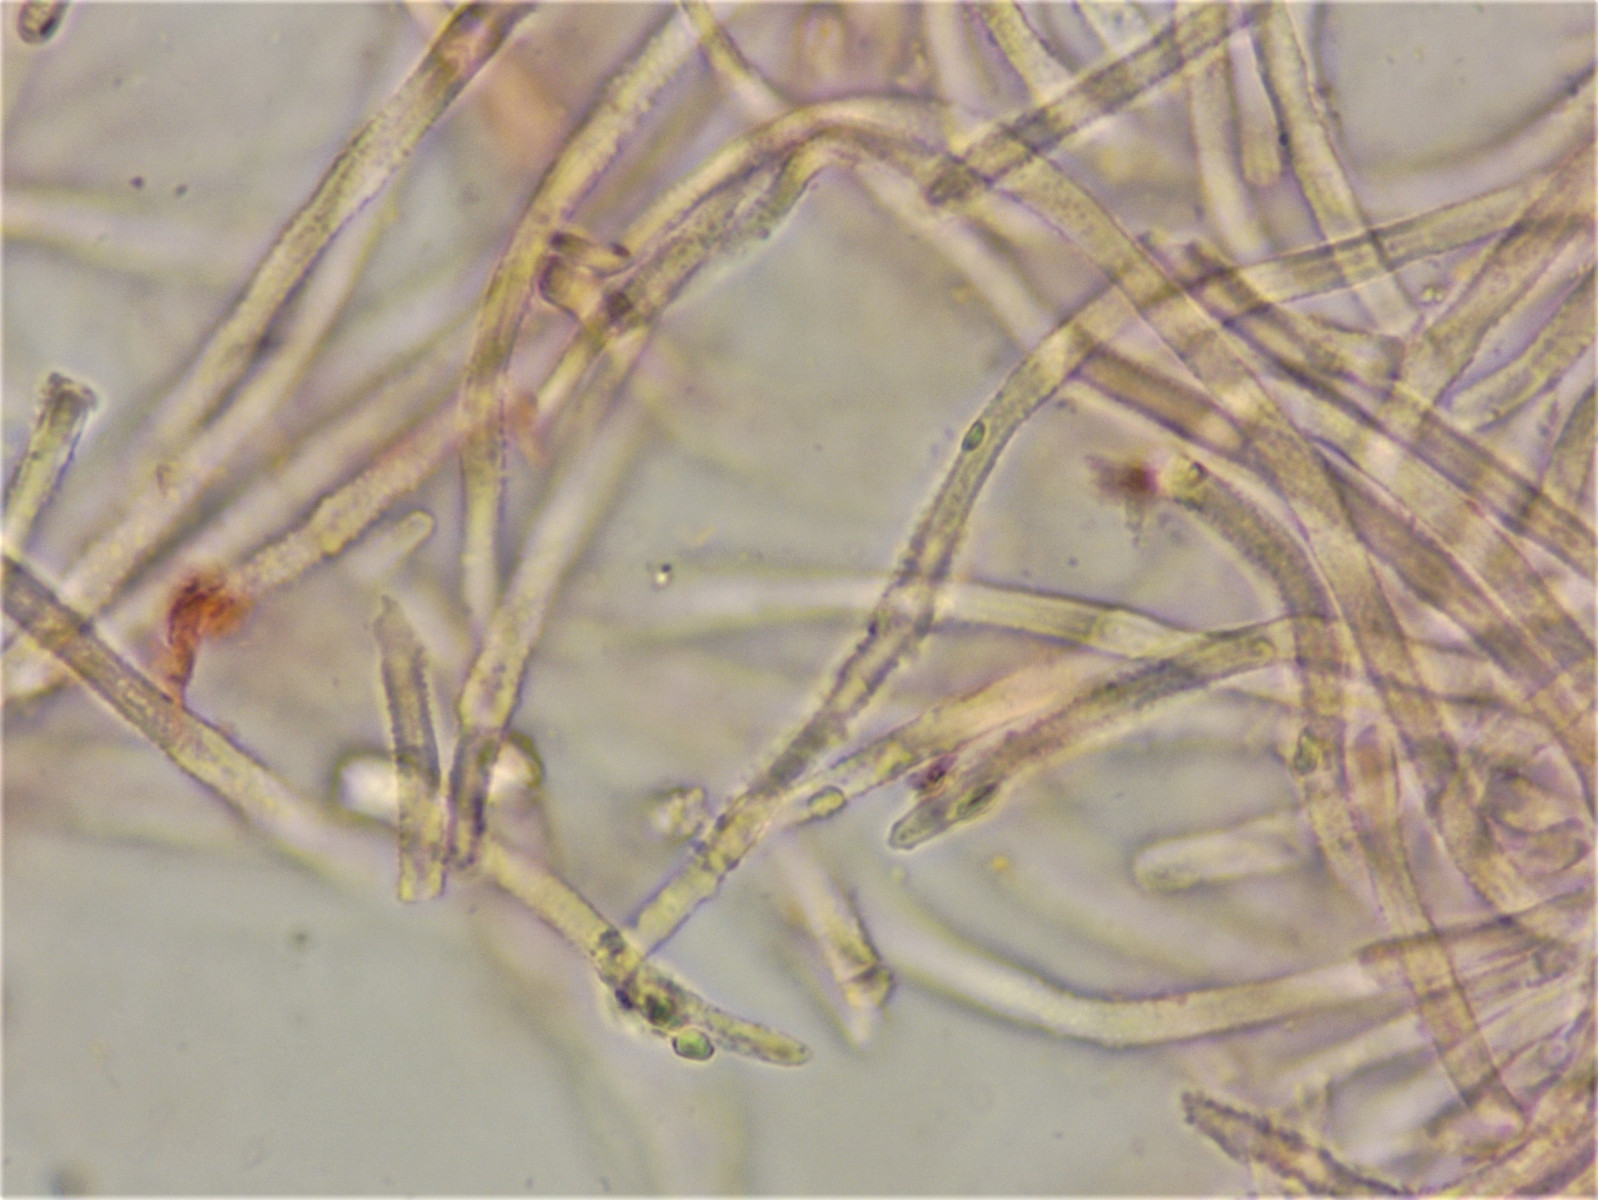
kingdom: Fungi
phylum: Ascomycota
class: Leotiomycetes
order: Helotiales
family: Lachnaceae
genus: Capitotricha
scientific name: Capitotricha bicolor
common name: prægtig frynseskive
